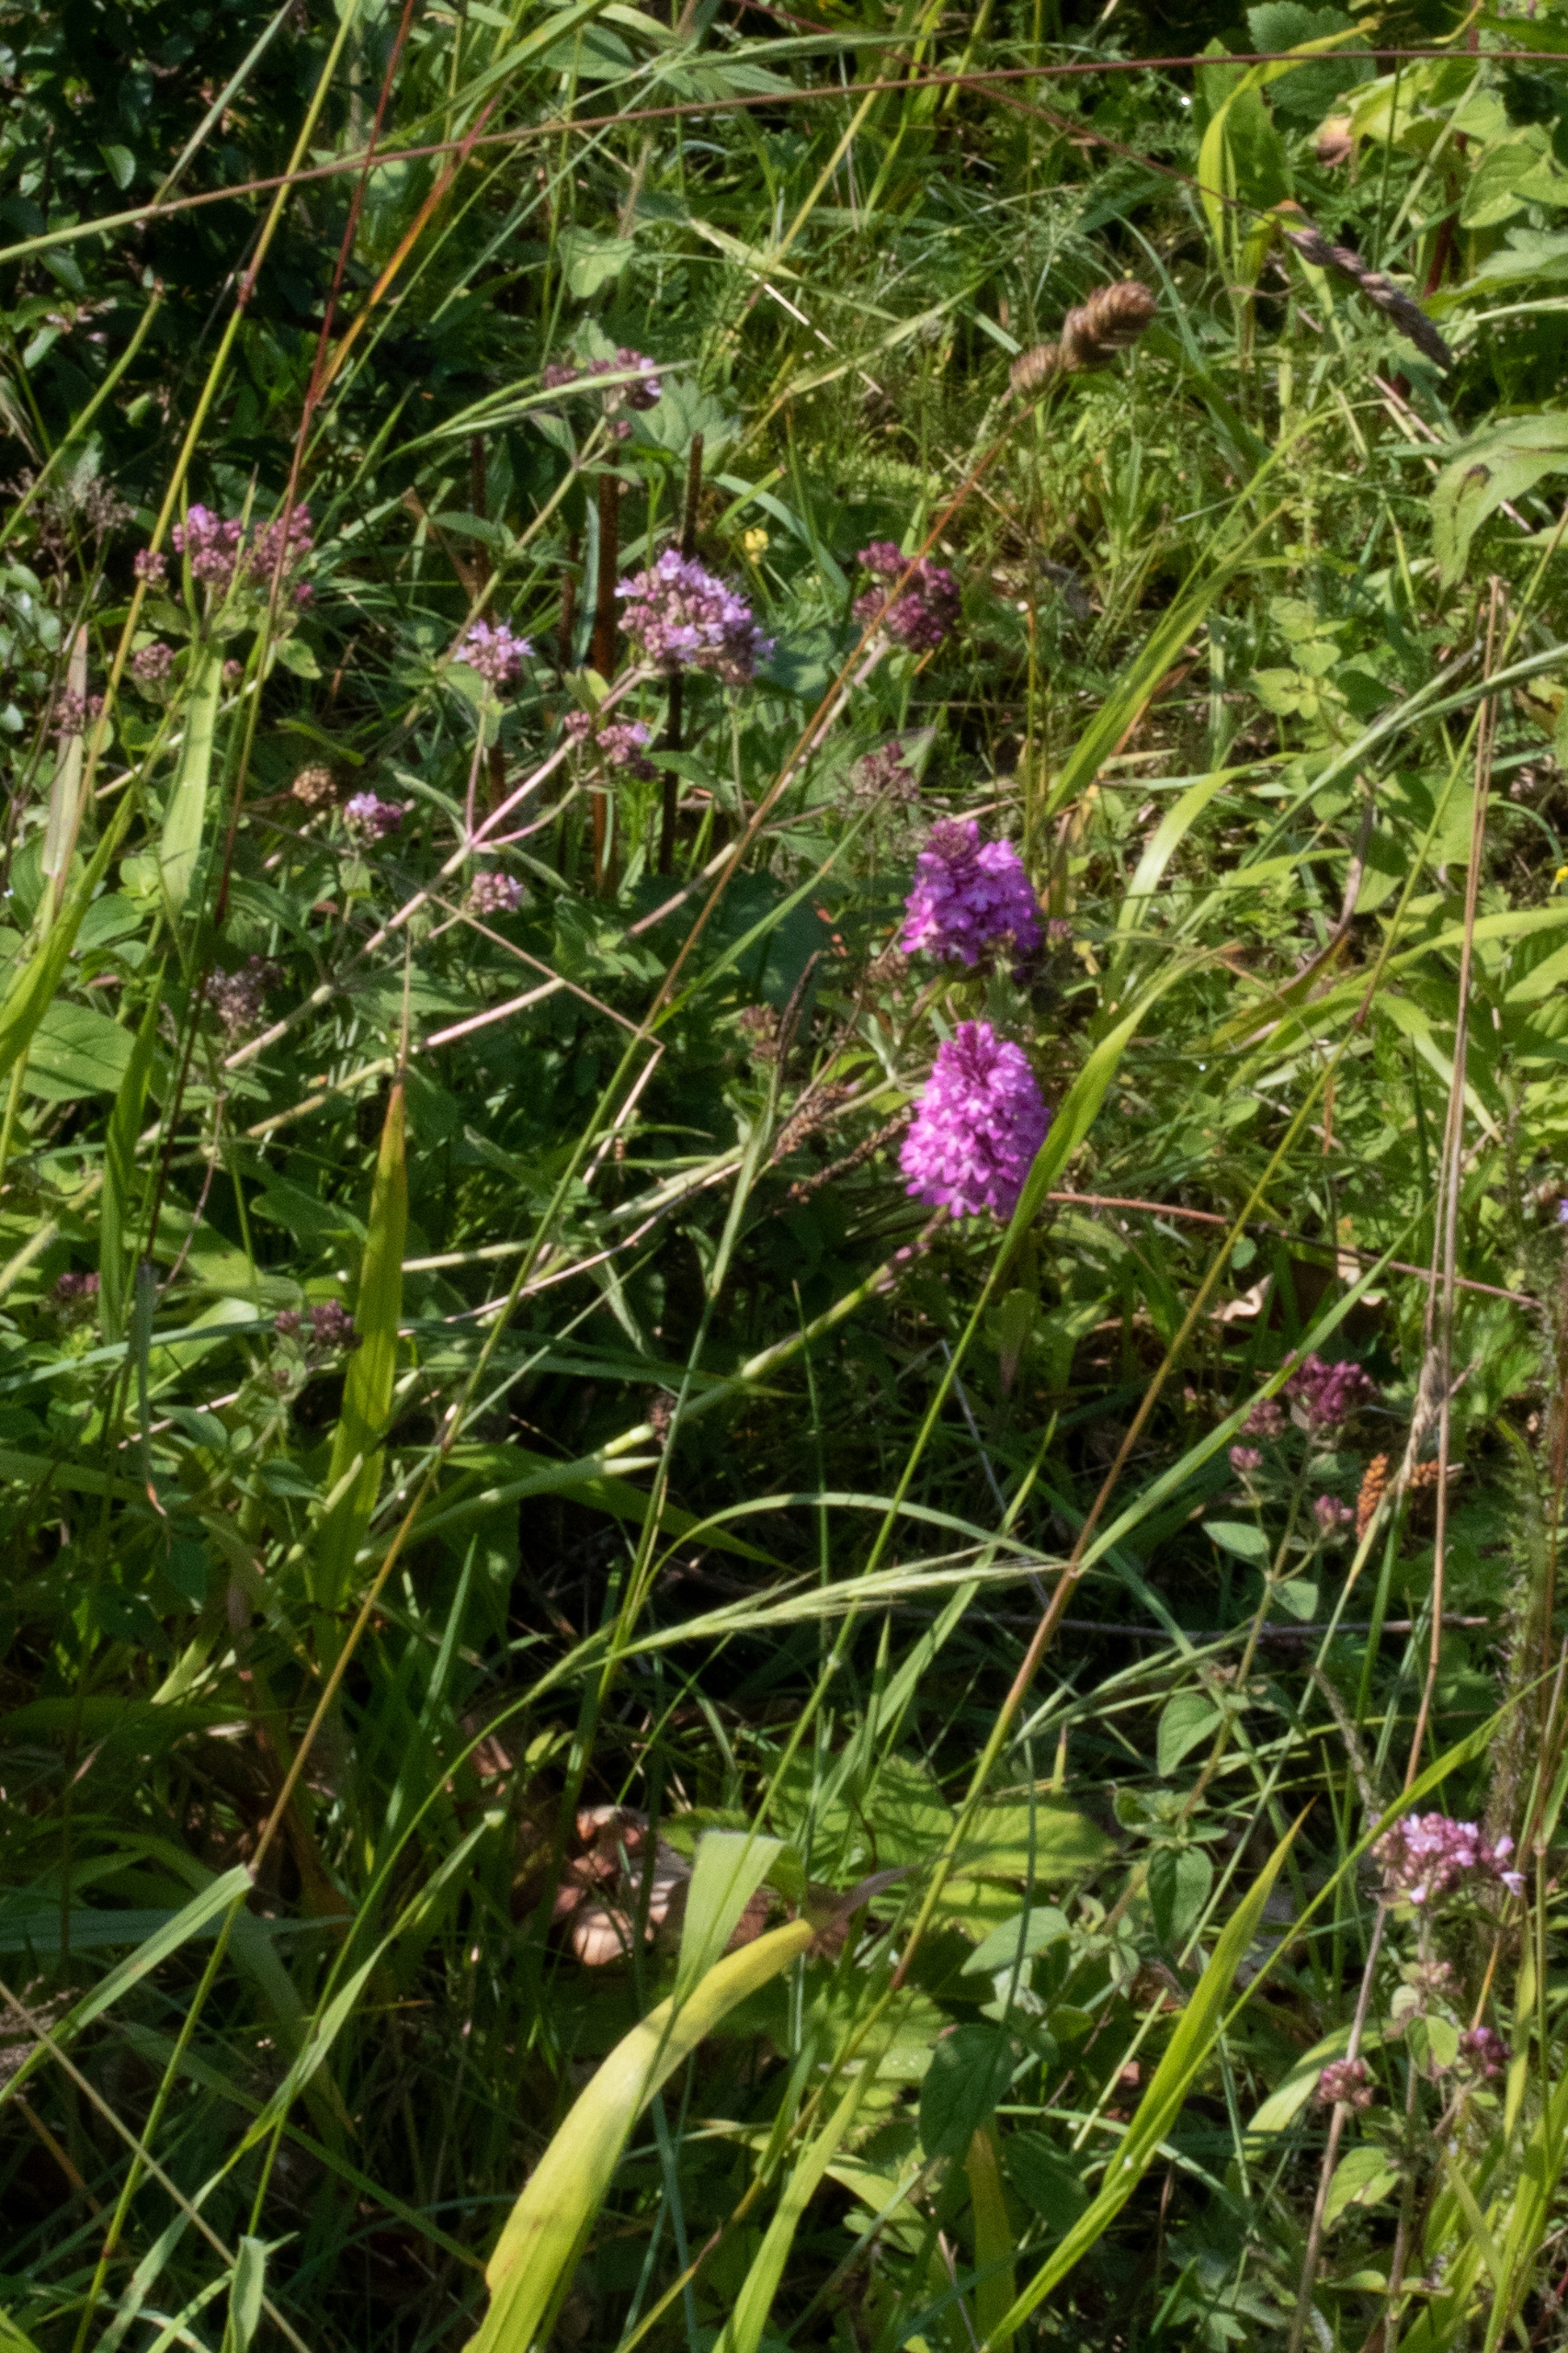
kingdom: Plantae
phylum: Tracheophyta
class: Liliopsida
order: Asparagales
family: Orchidaceae
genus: Anacamptis
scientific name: Anacamptis pyramidalis
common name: Horndrager
